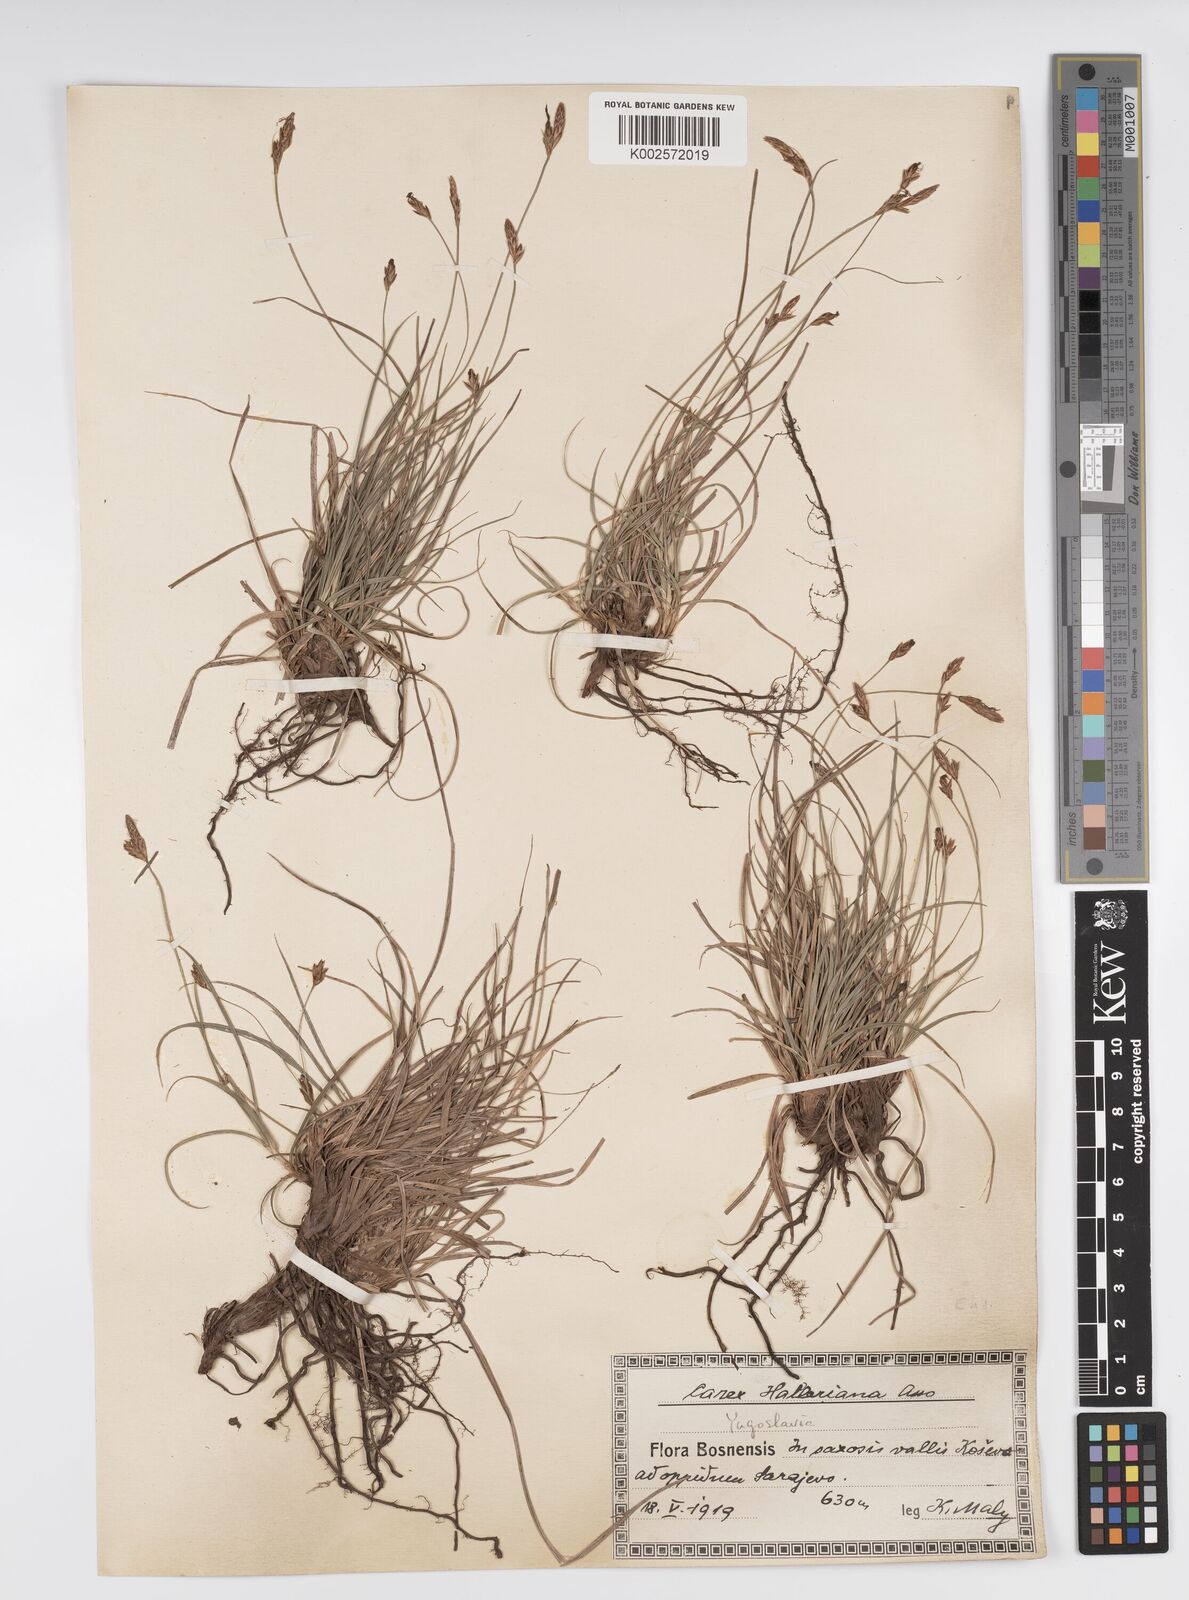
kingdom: Plantae
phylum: Tracheophyta
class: Liliopsida
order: Poales
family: Cyperaceae
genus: Carex
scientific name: Carex halleriana
